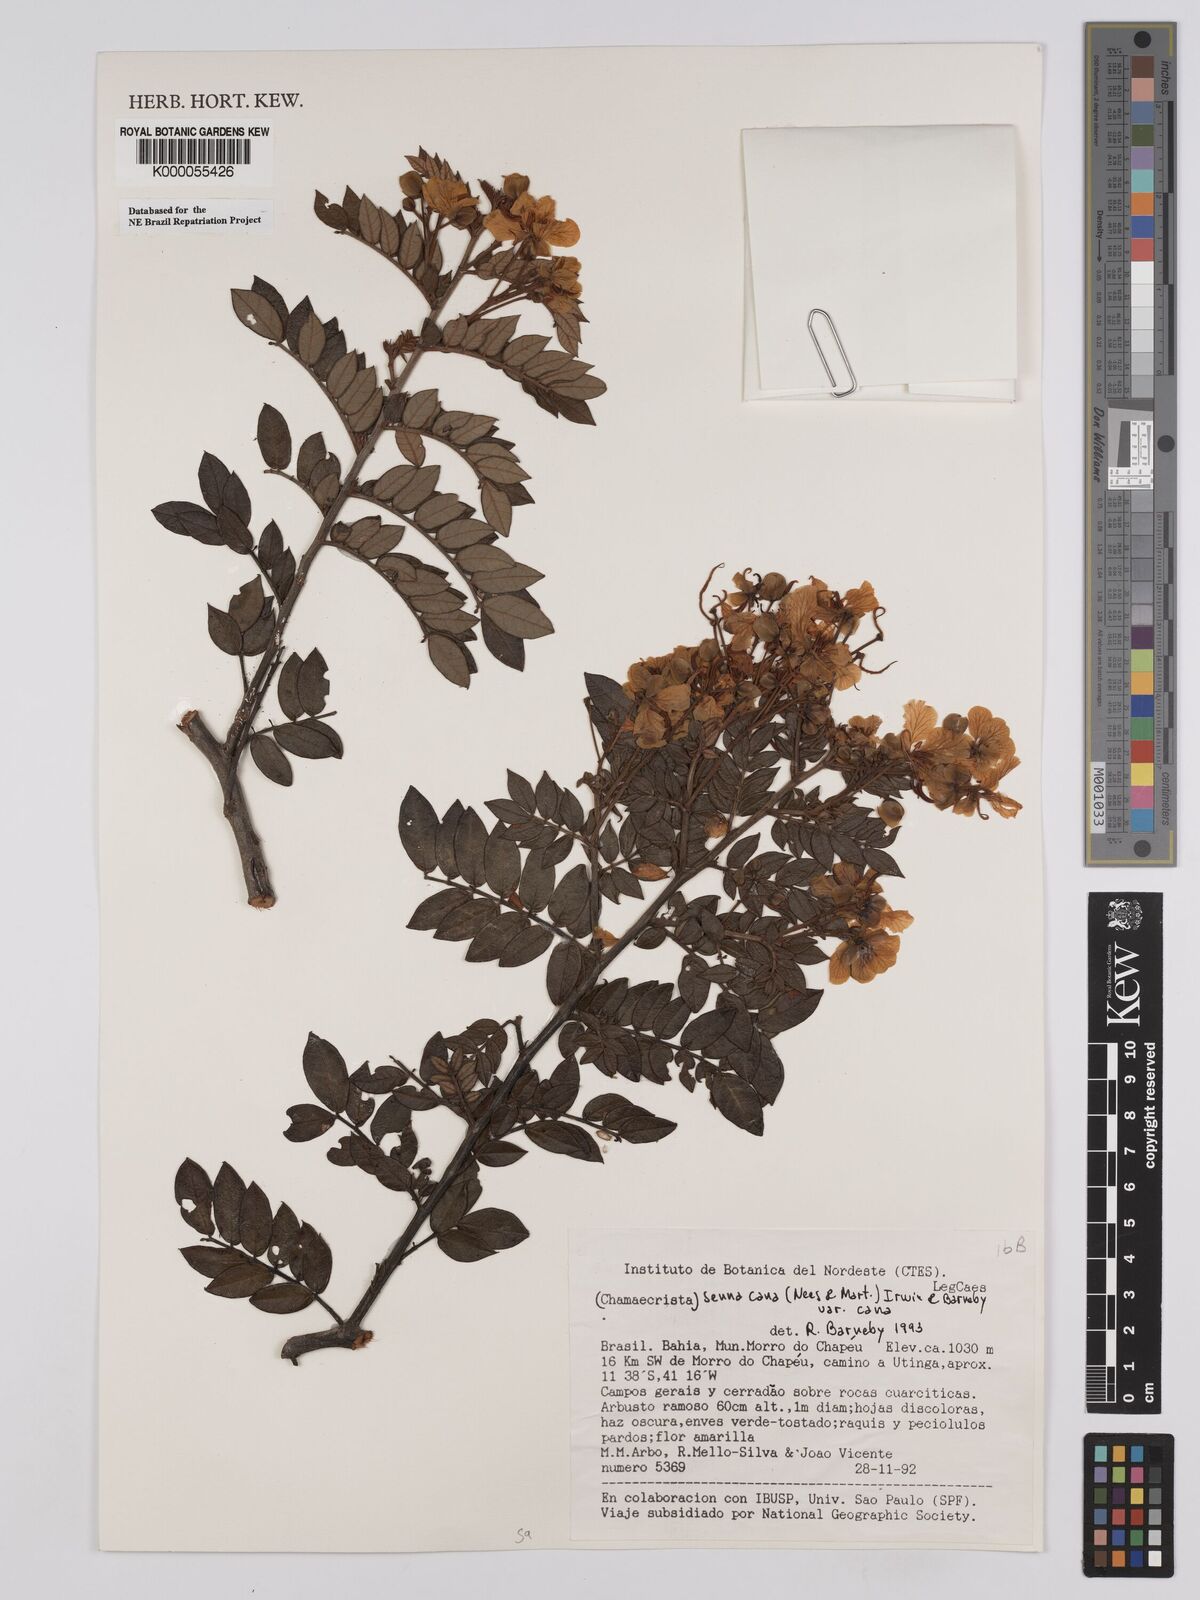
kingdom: Plantae
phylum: Tracheophyta
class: Magnoliopsida
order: Fabales
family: Fabaceae
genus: Senna
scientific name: Senna cana
